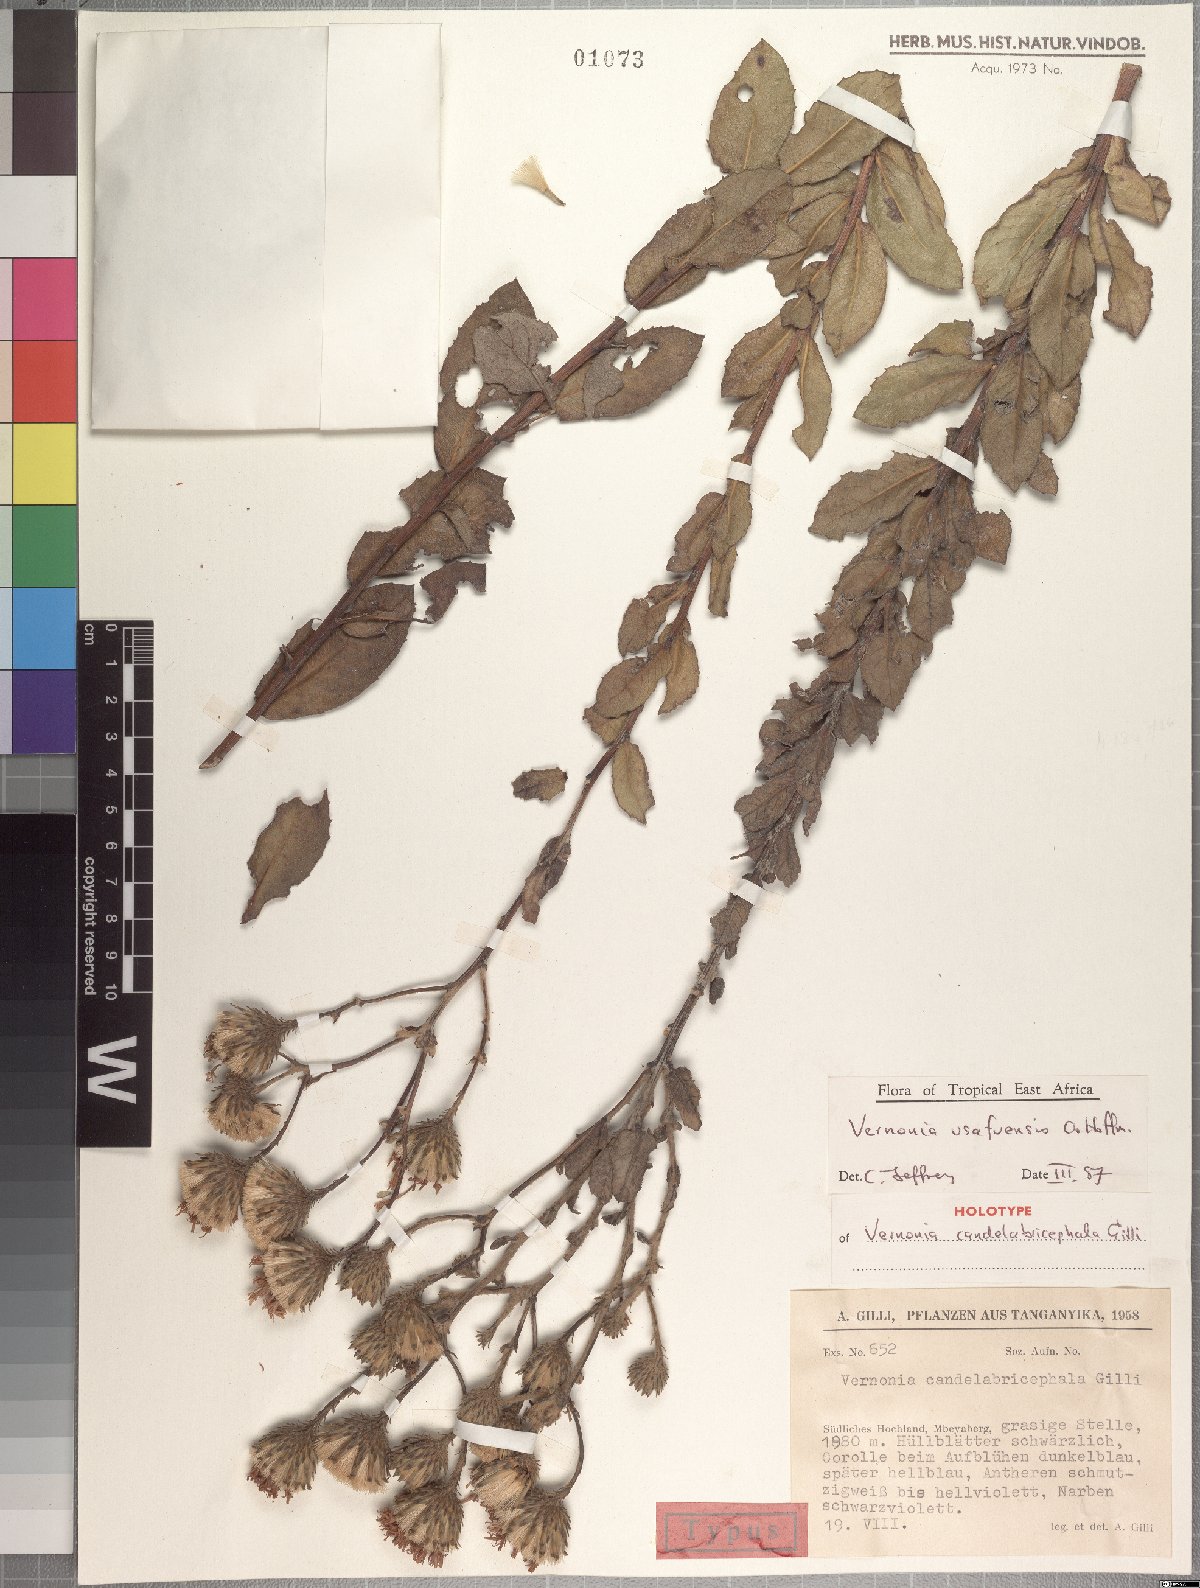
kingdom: Plantae
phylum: Tracheophyta
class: Magnoliopsida
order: Asterales
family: Asteraceae
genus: Linzia
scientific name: Linzia usafuensis
